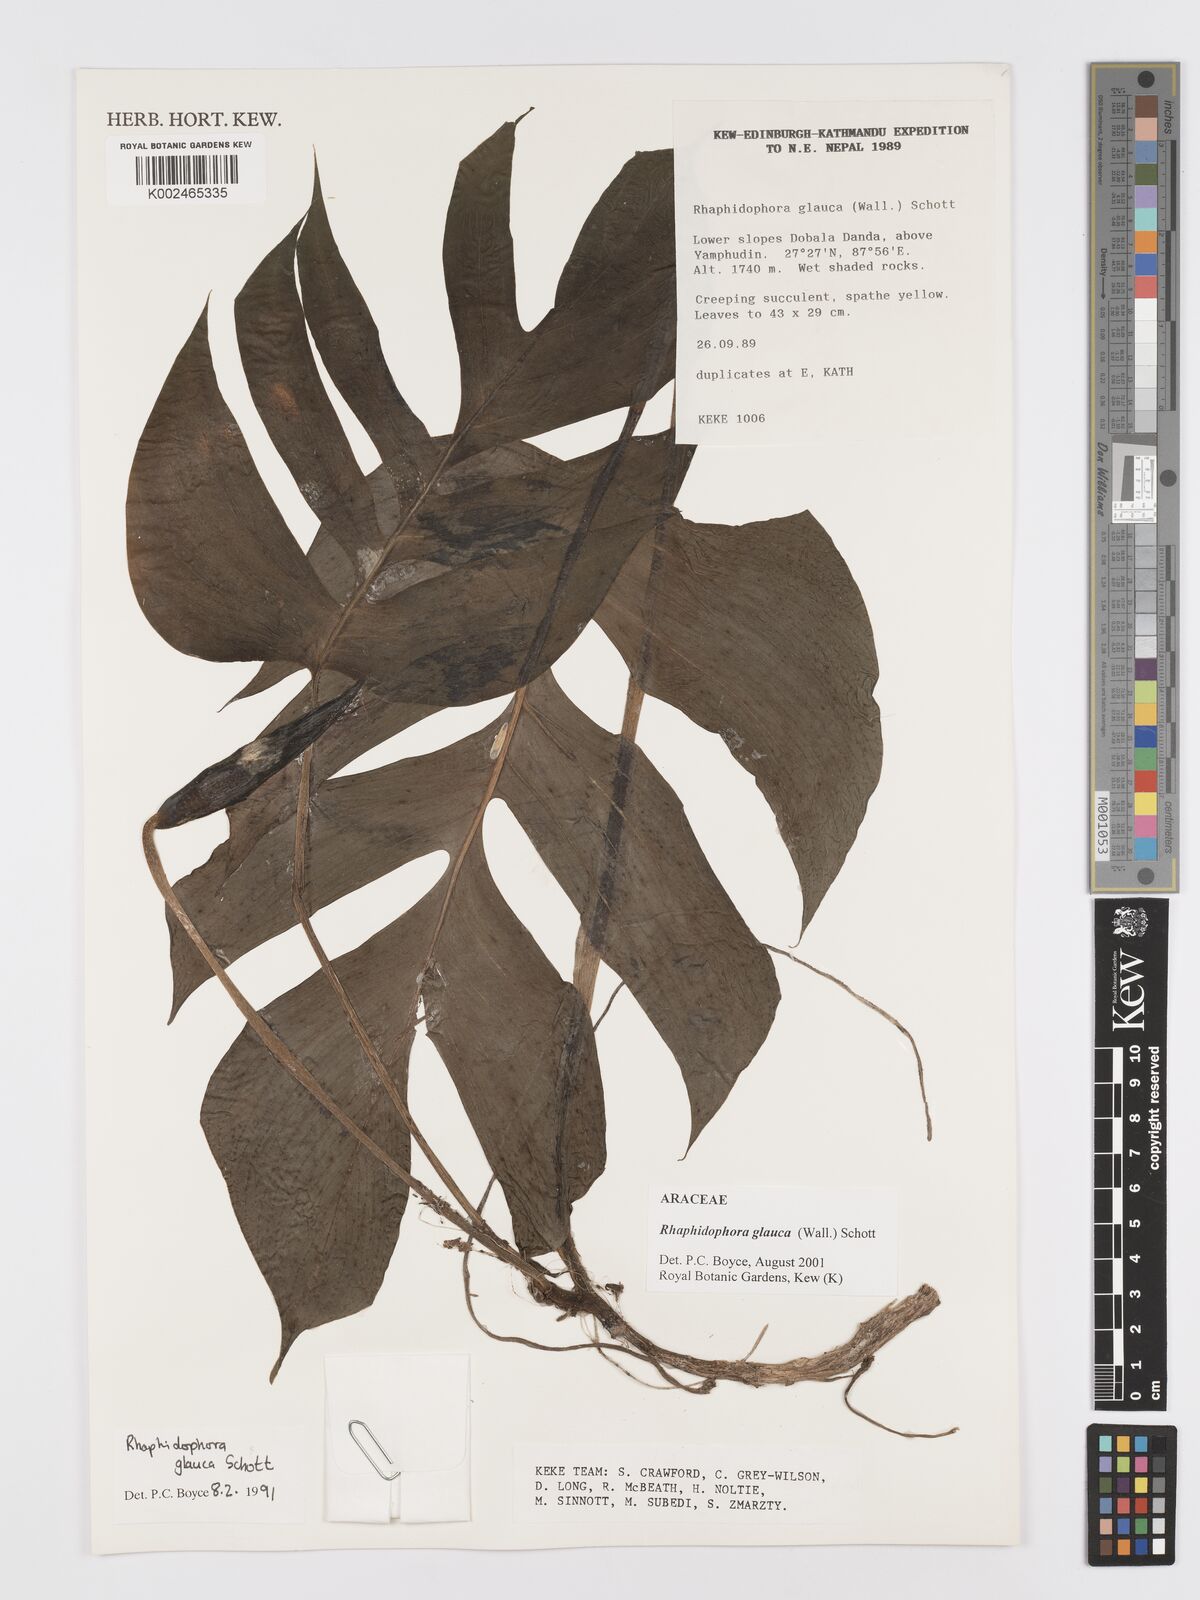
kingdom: Plantae
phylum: Tracheophyta
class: Liliopsida
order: Alismatales
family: Araceae
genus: Rhaphidophora
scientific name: Rhaphidophora glauca
